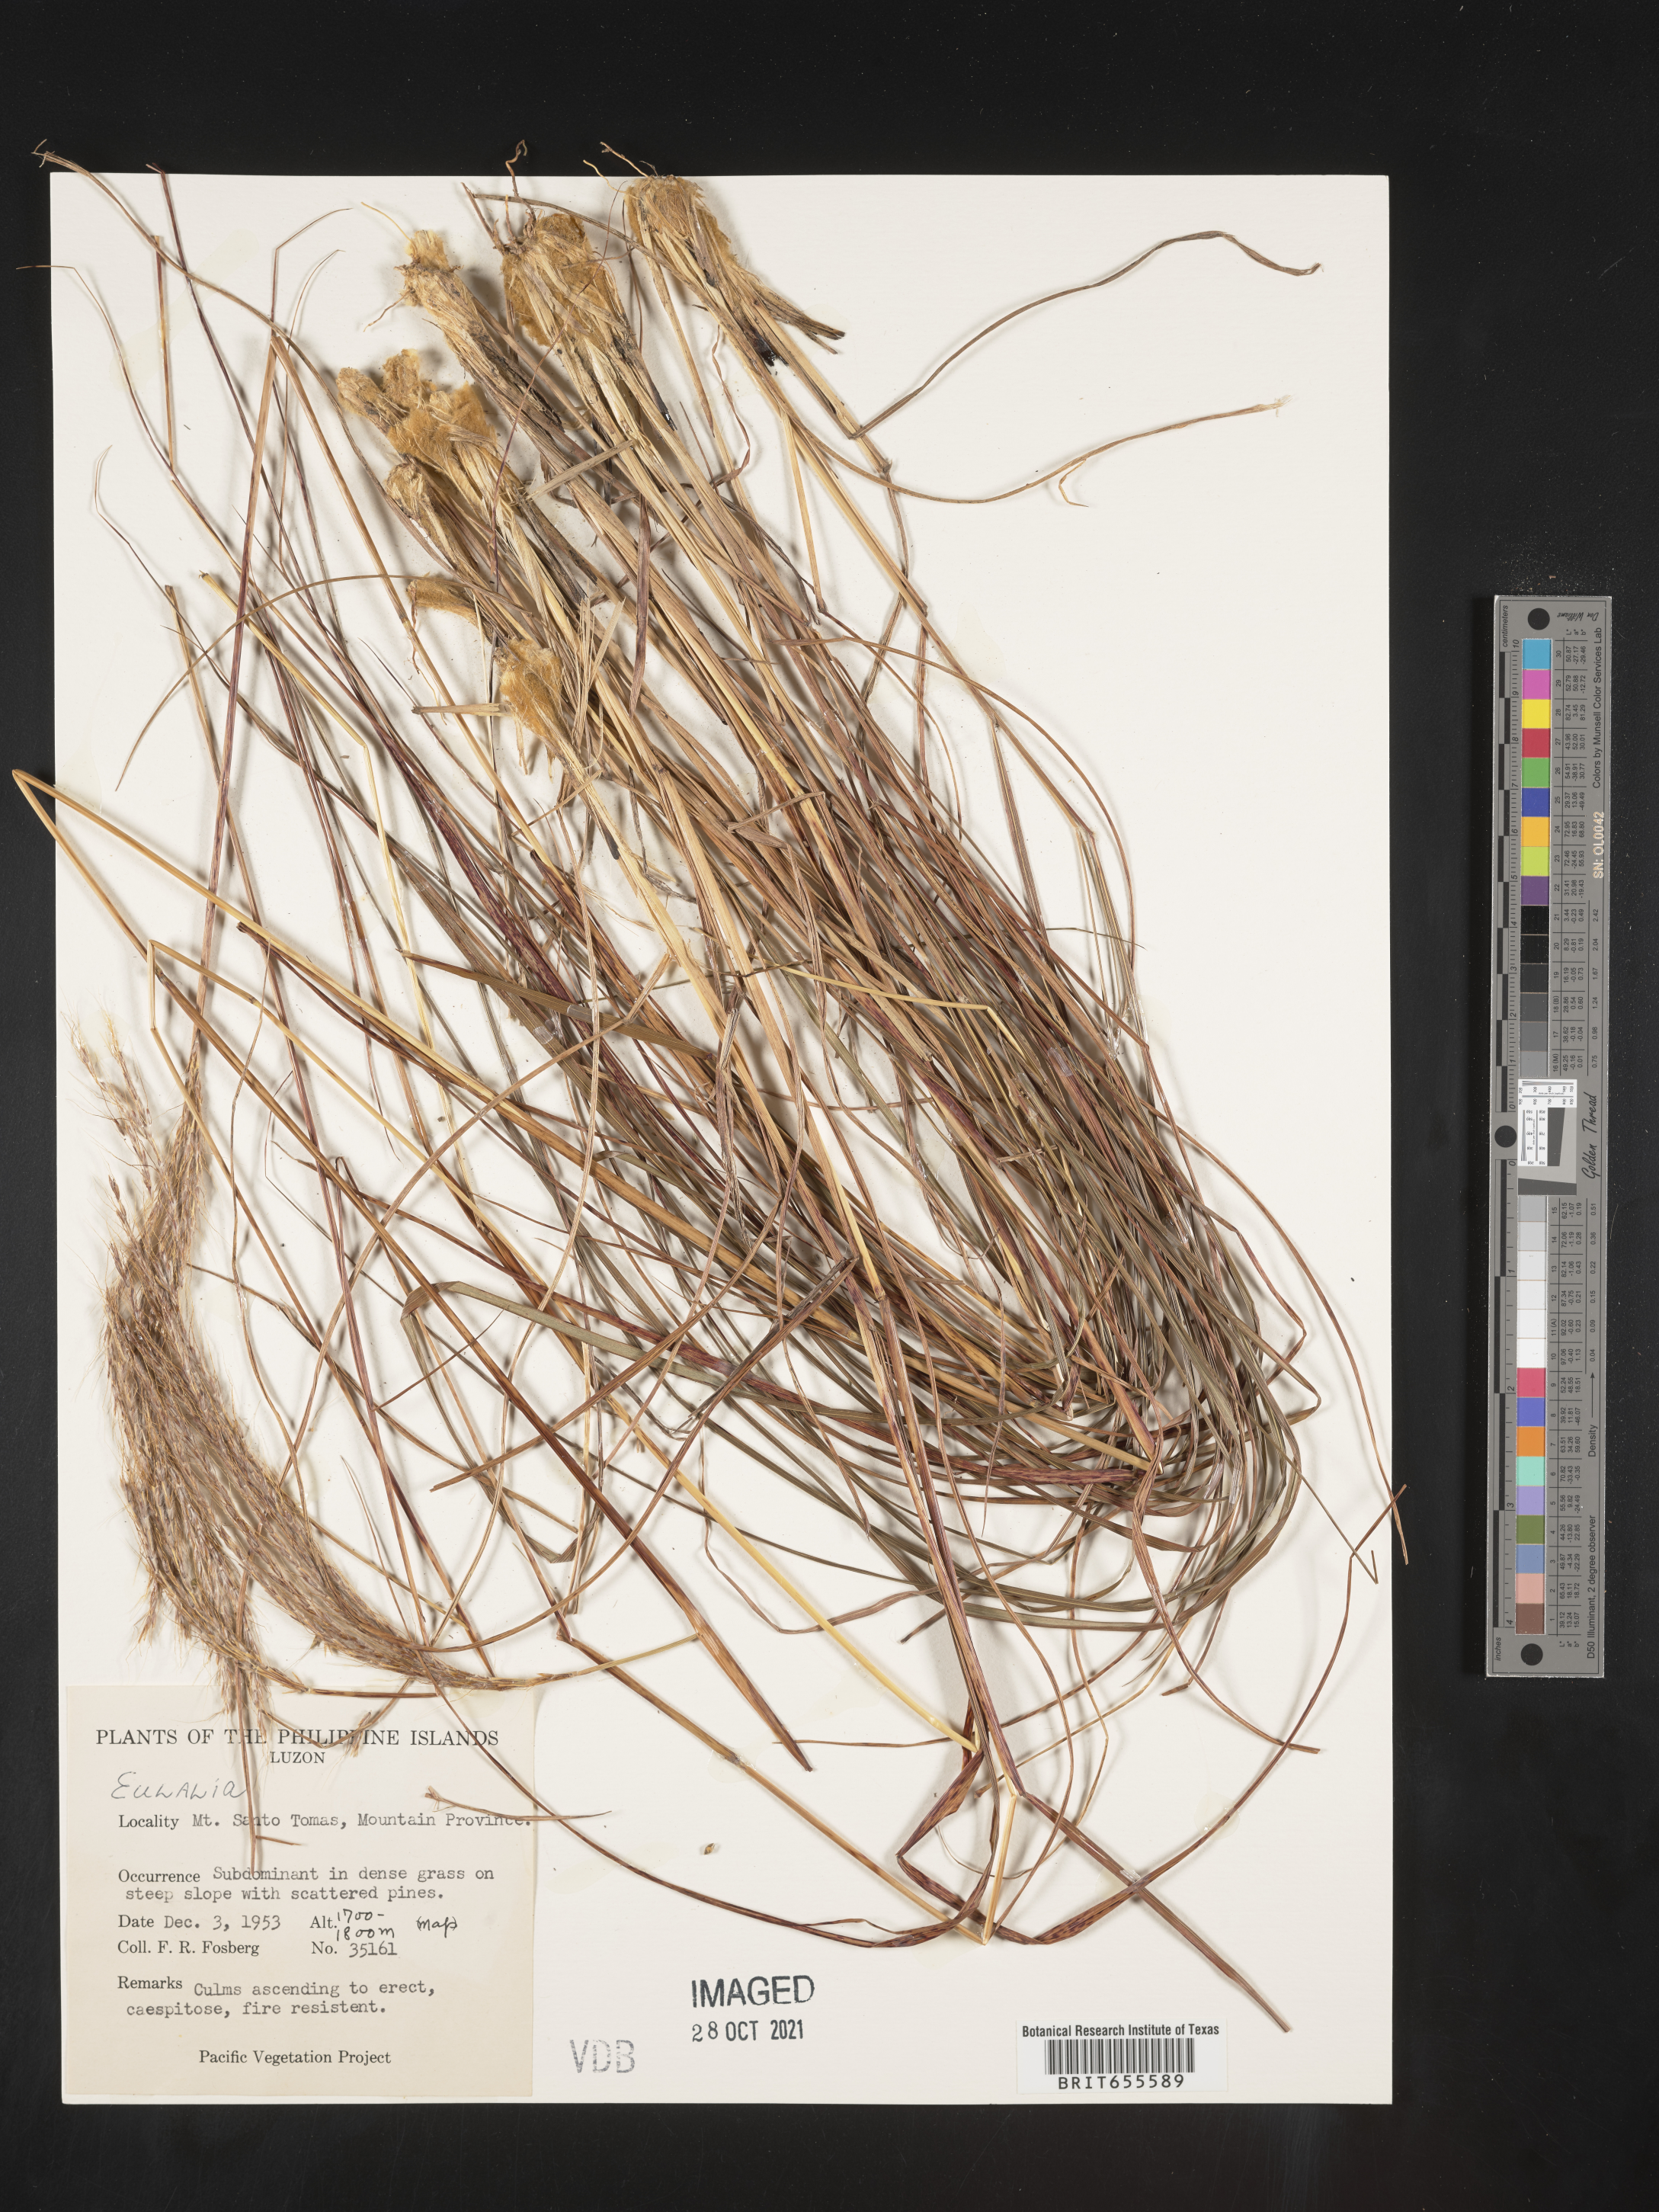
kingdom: Plantae
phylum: Tracheophyta
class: Liliopsida
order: Poales
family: Poaceae
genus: Microstegium
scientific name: Microstegium
